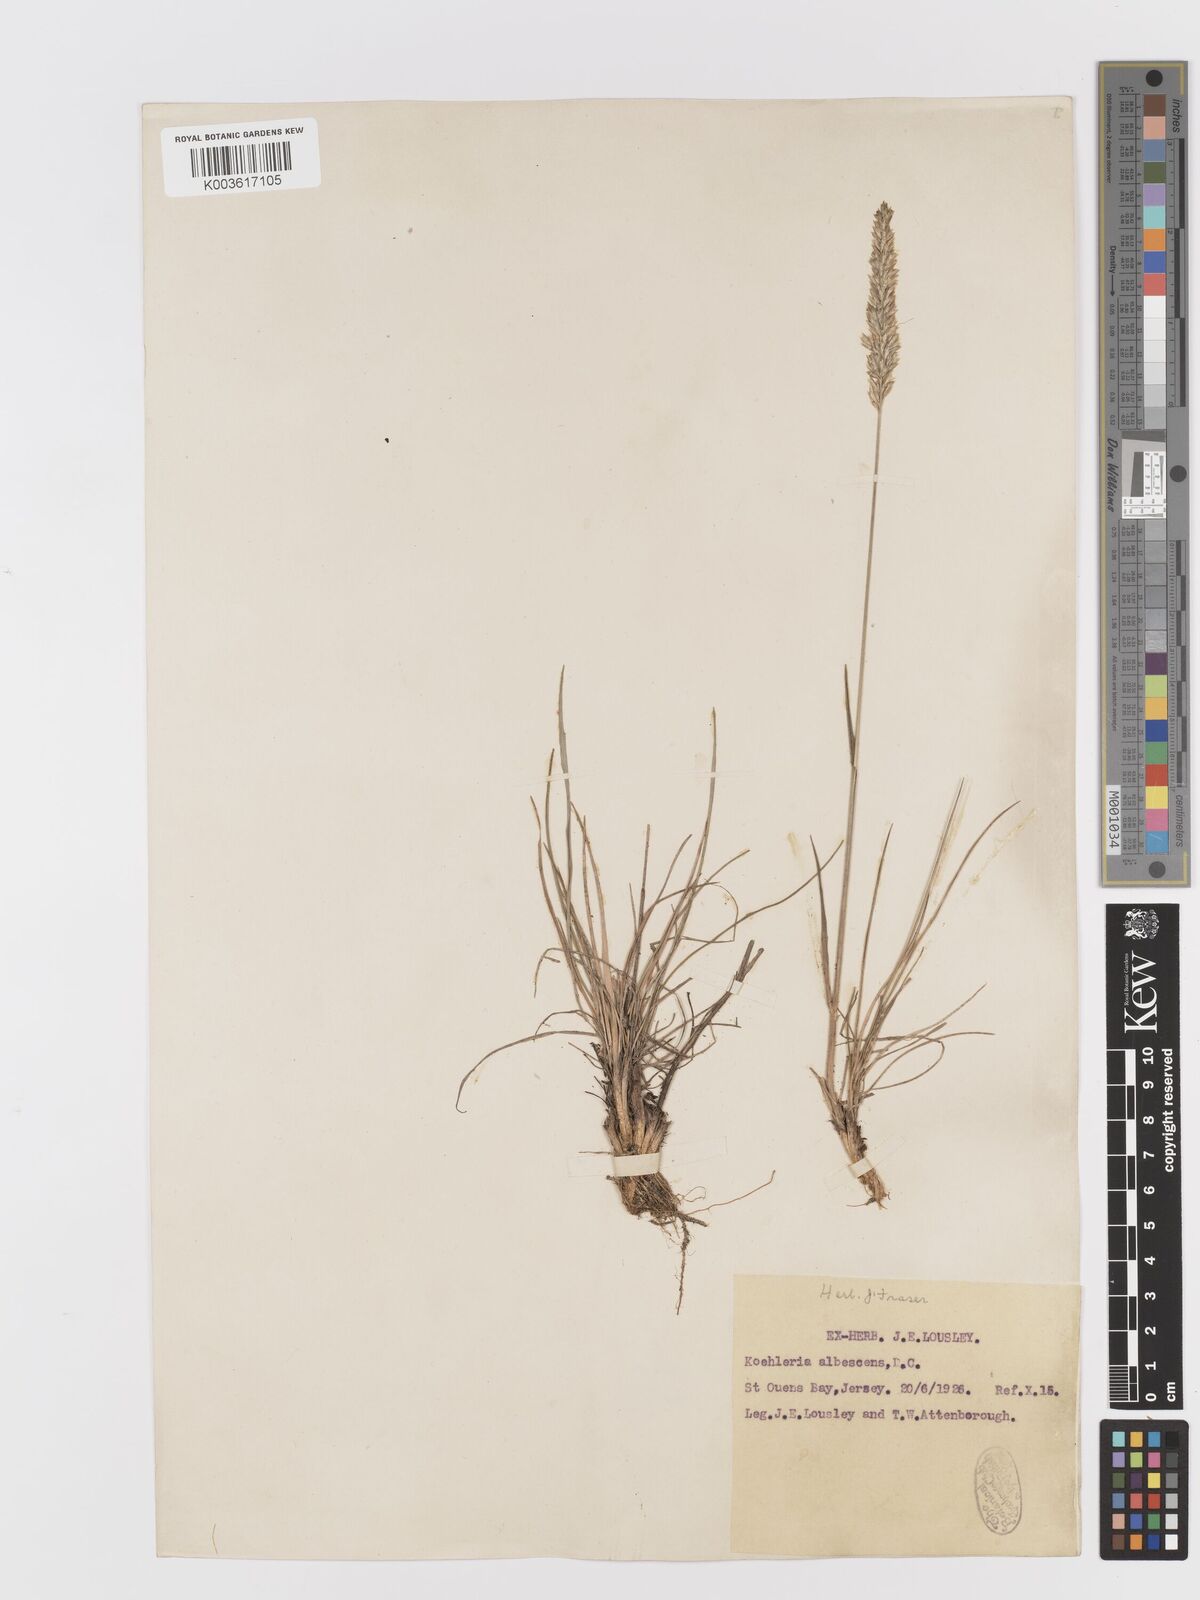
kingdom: Plantae
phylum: Tracheophyta
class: Liliopsida
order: Poales
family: Poaceae
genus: Koeleria
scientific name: Koeleria macrantha
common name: Crested hair-grass
